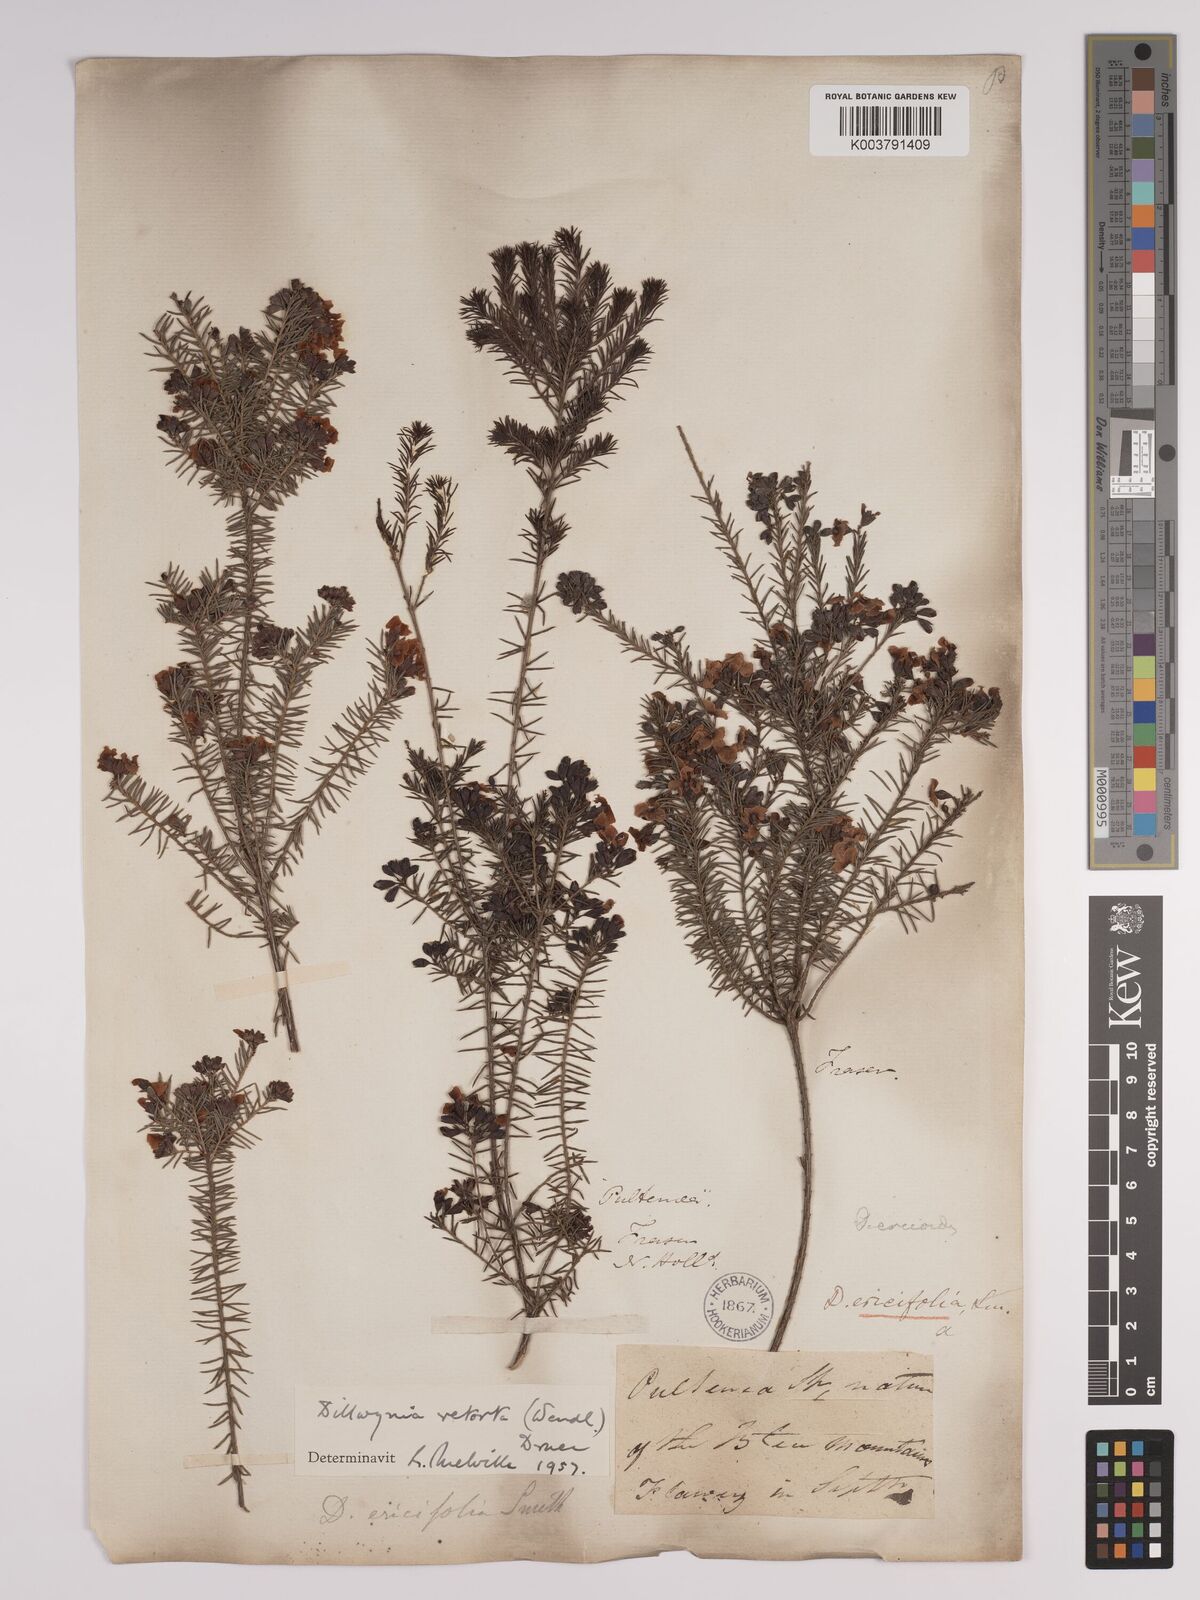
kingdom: Plantae
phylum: Tracheophyta
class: Magnoliopsida
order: Fabales
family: Fabaceae
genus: Dillwynia
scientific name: Dillwynia retorta
